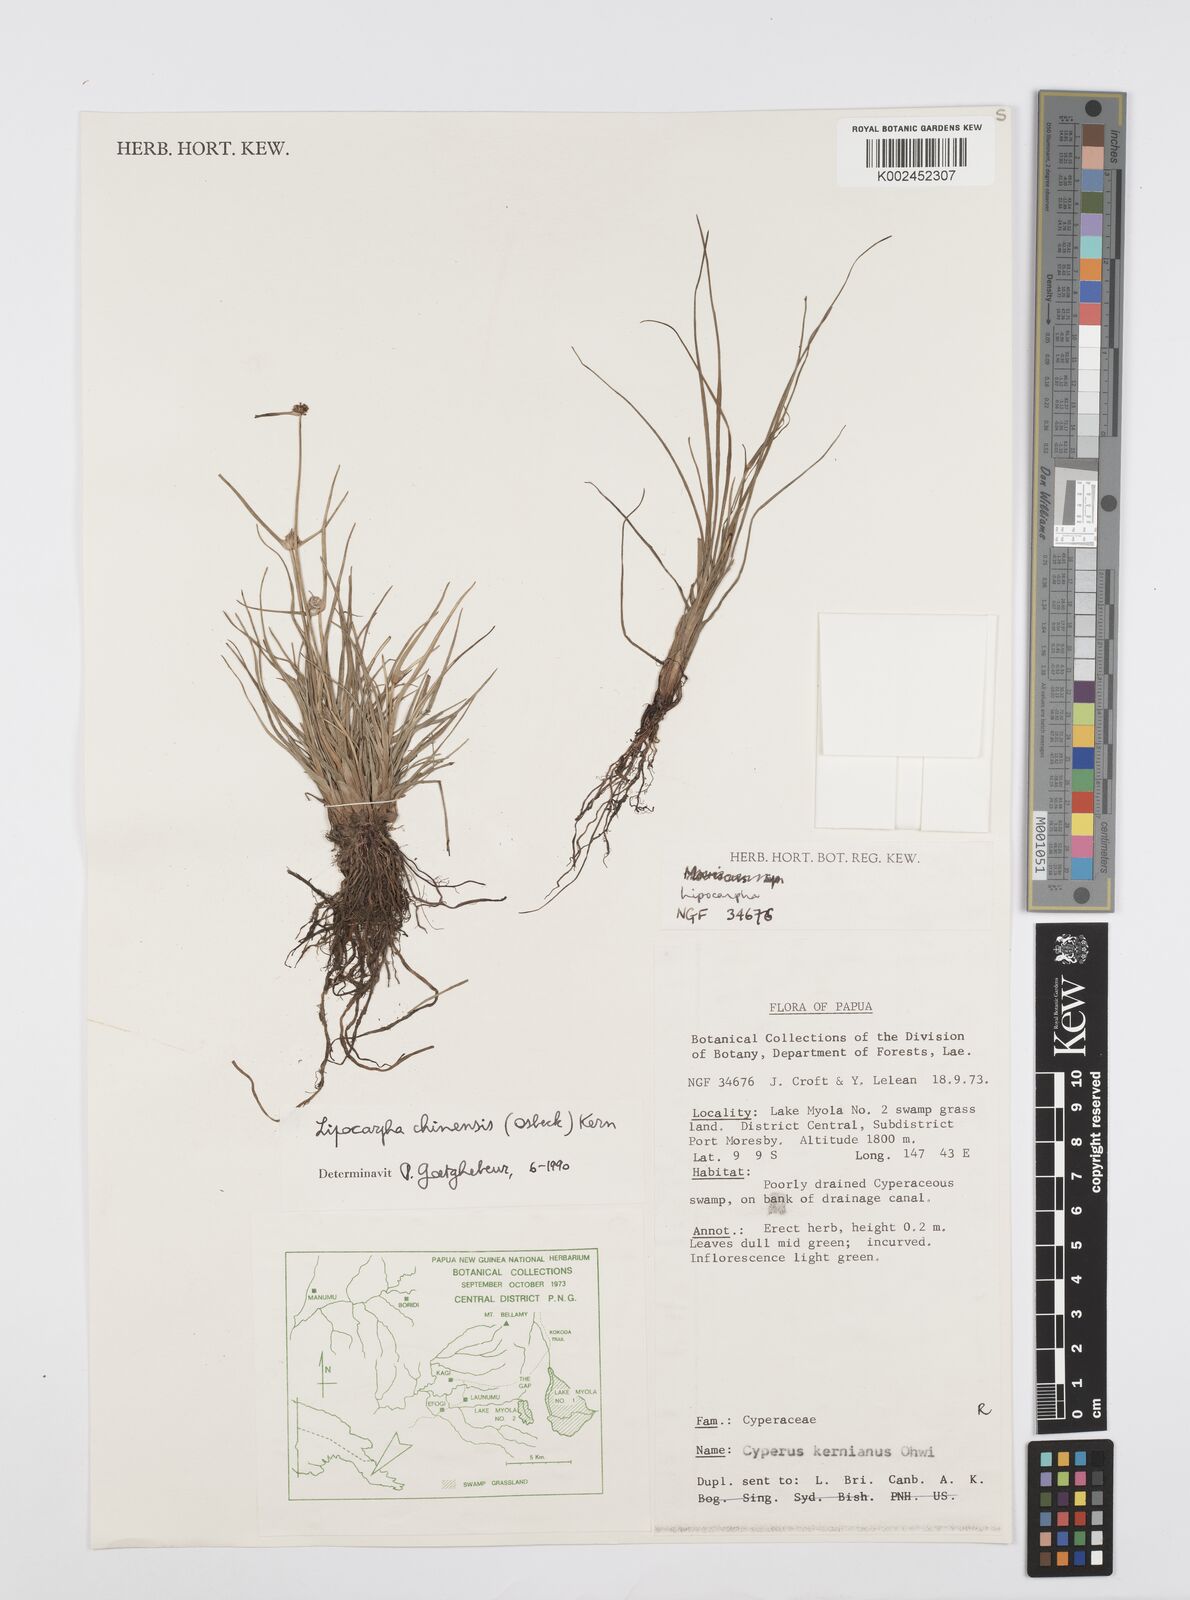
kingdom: Plantae
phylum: Tracheophyta
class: Liliopsida
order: Poales
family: Cyperaceae
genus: Cyperus
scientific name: Cyperus
